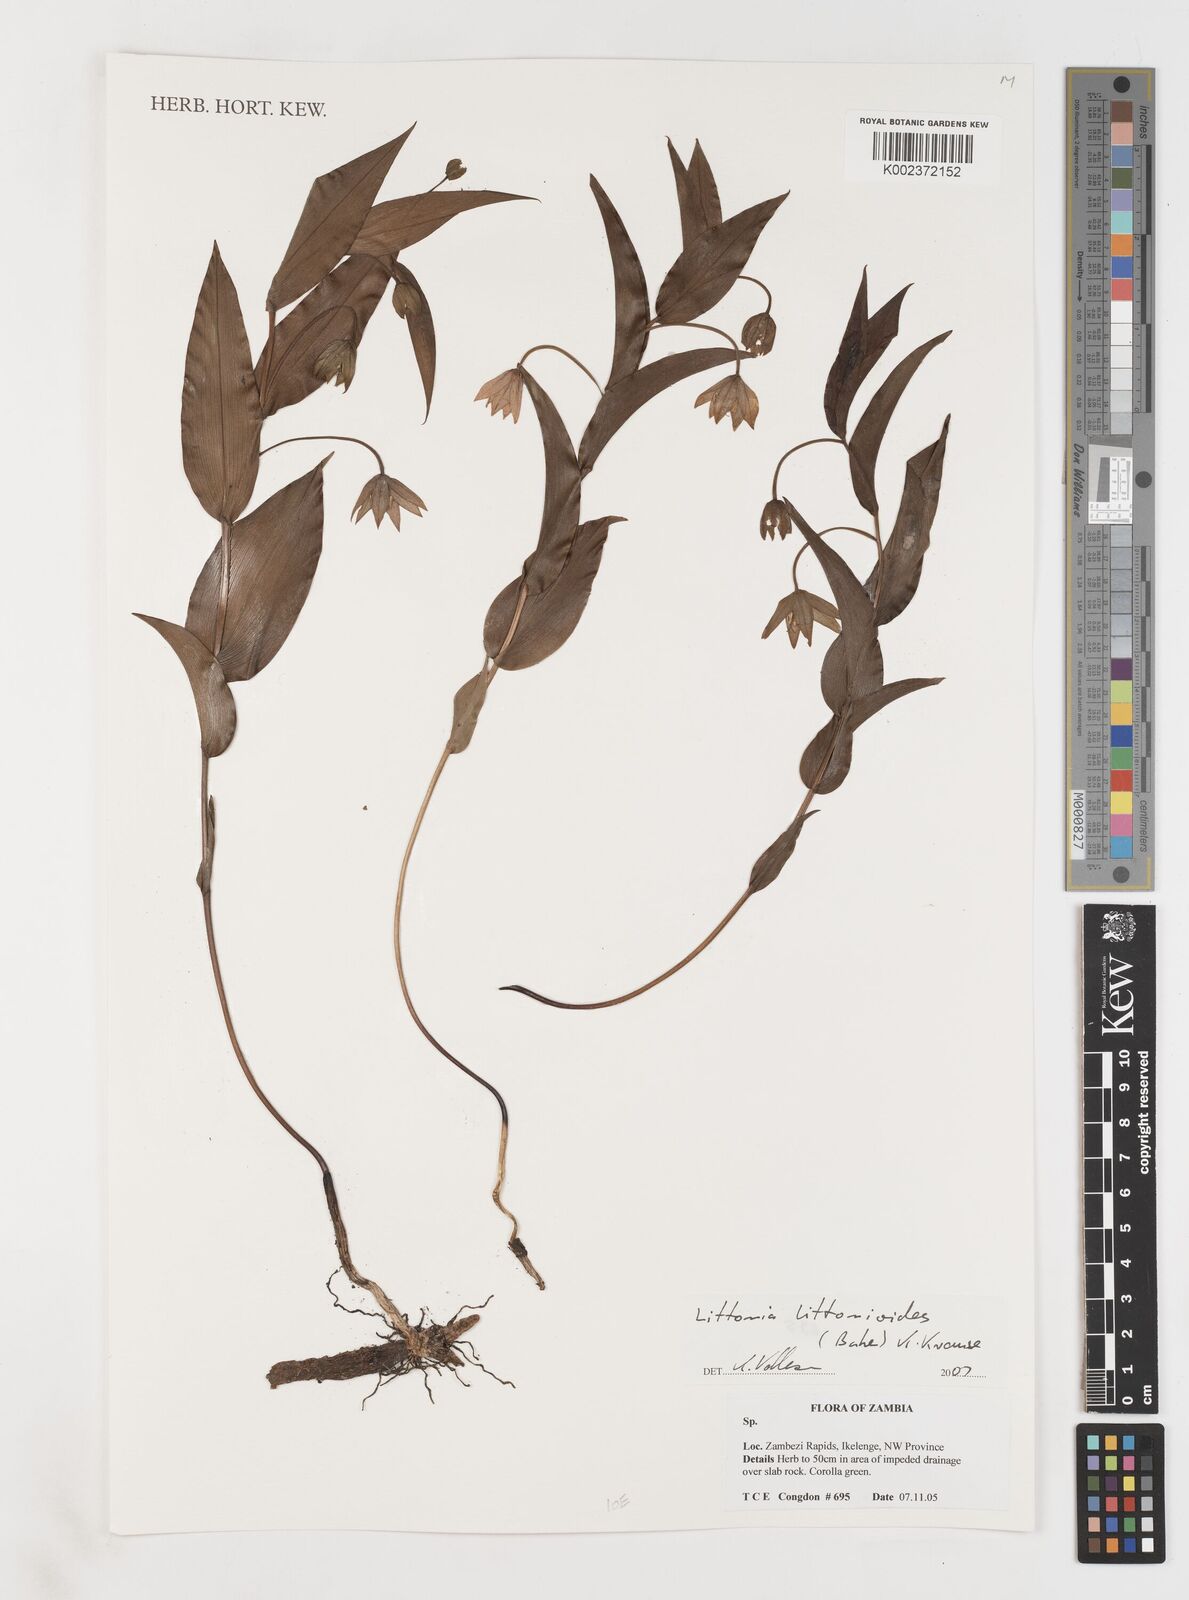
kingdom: Plantae
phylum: Tracheophyta
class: Liliopsida
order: Liliales
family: Colchicaceae
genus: Gloriosa
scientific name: Gloriosa littonioides
